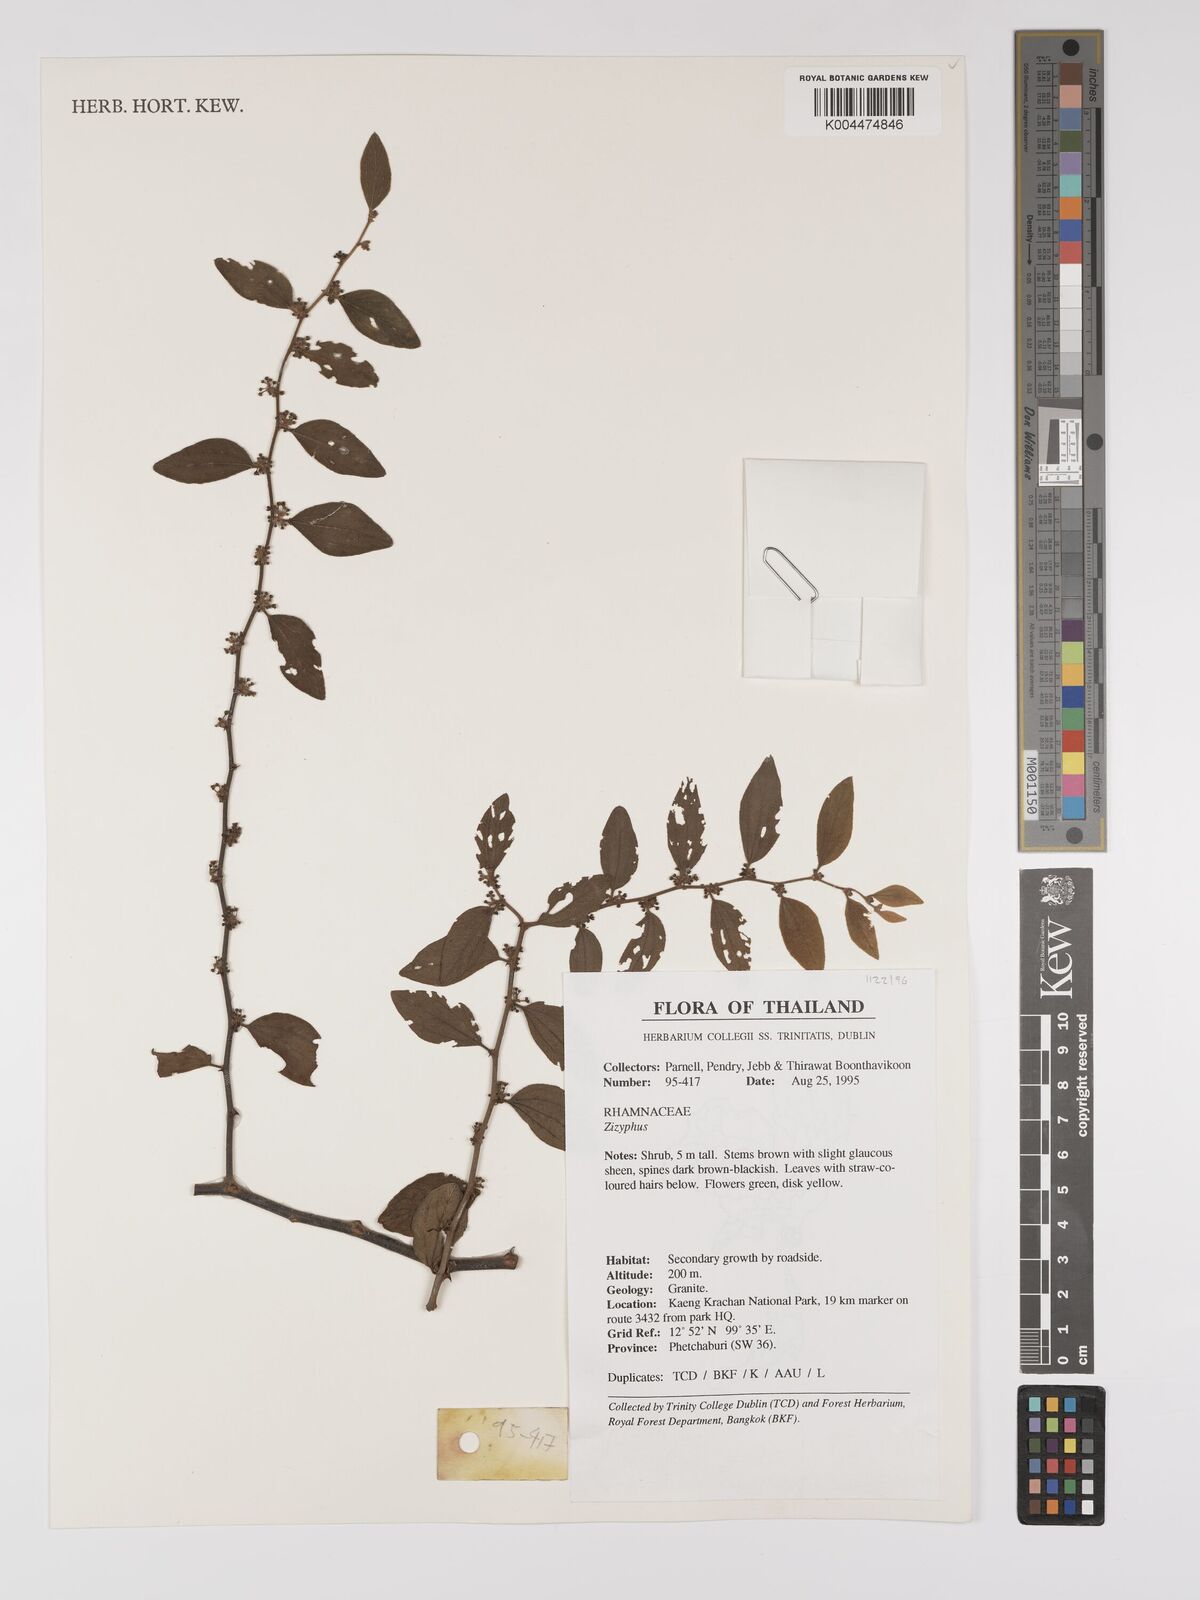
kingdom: Plantae
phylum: Tracheophyta
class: Magnoliopsida
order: Rosales
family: Rhamnaceae
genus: Ziziphus
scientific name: Ziziphus oenopolia
